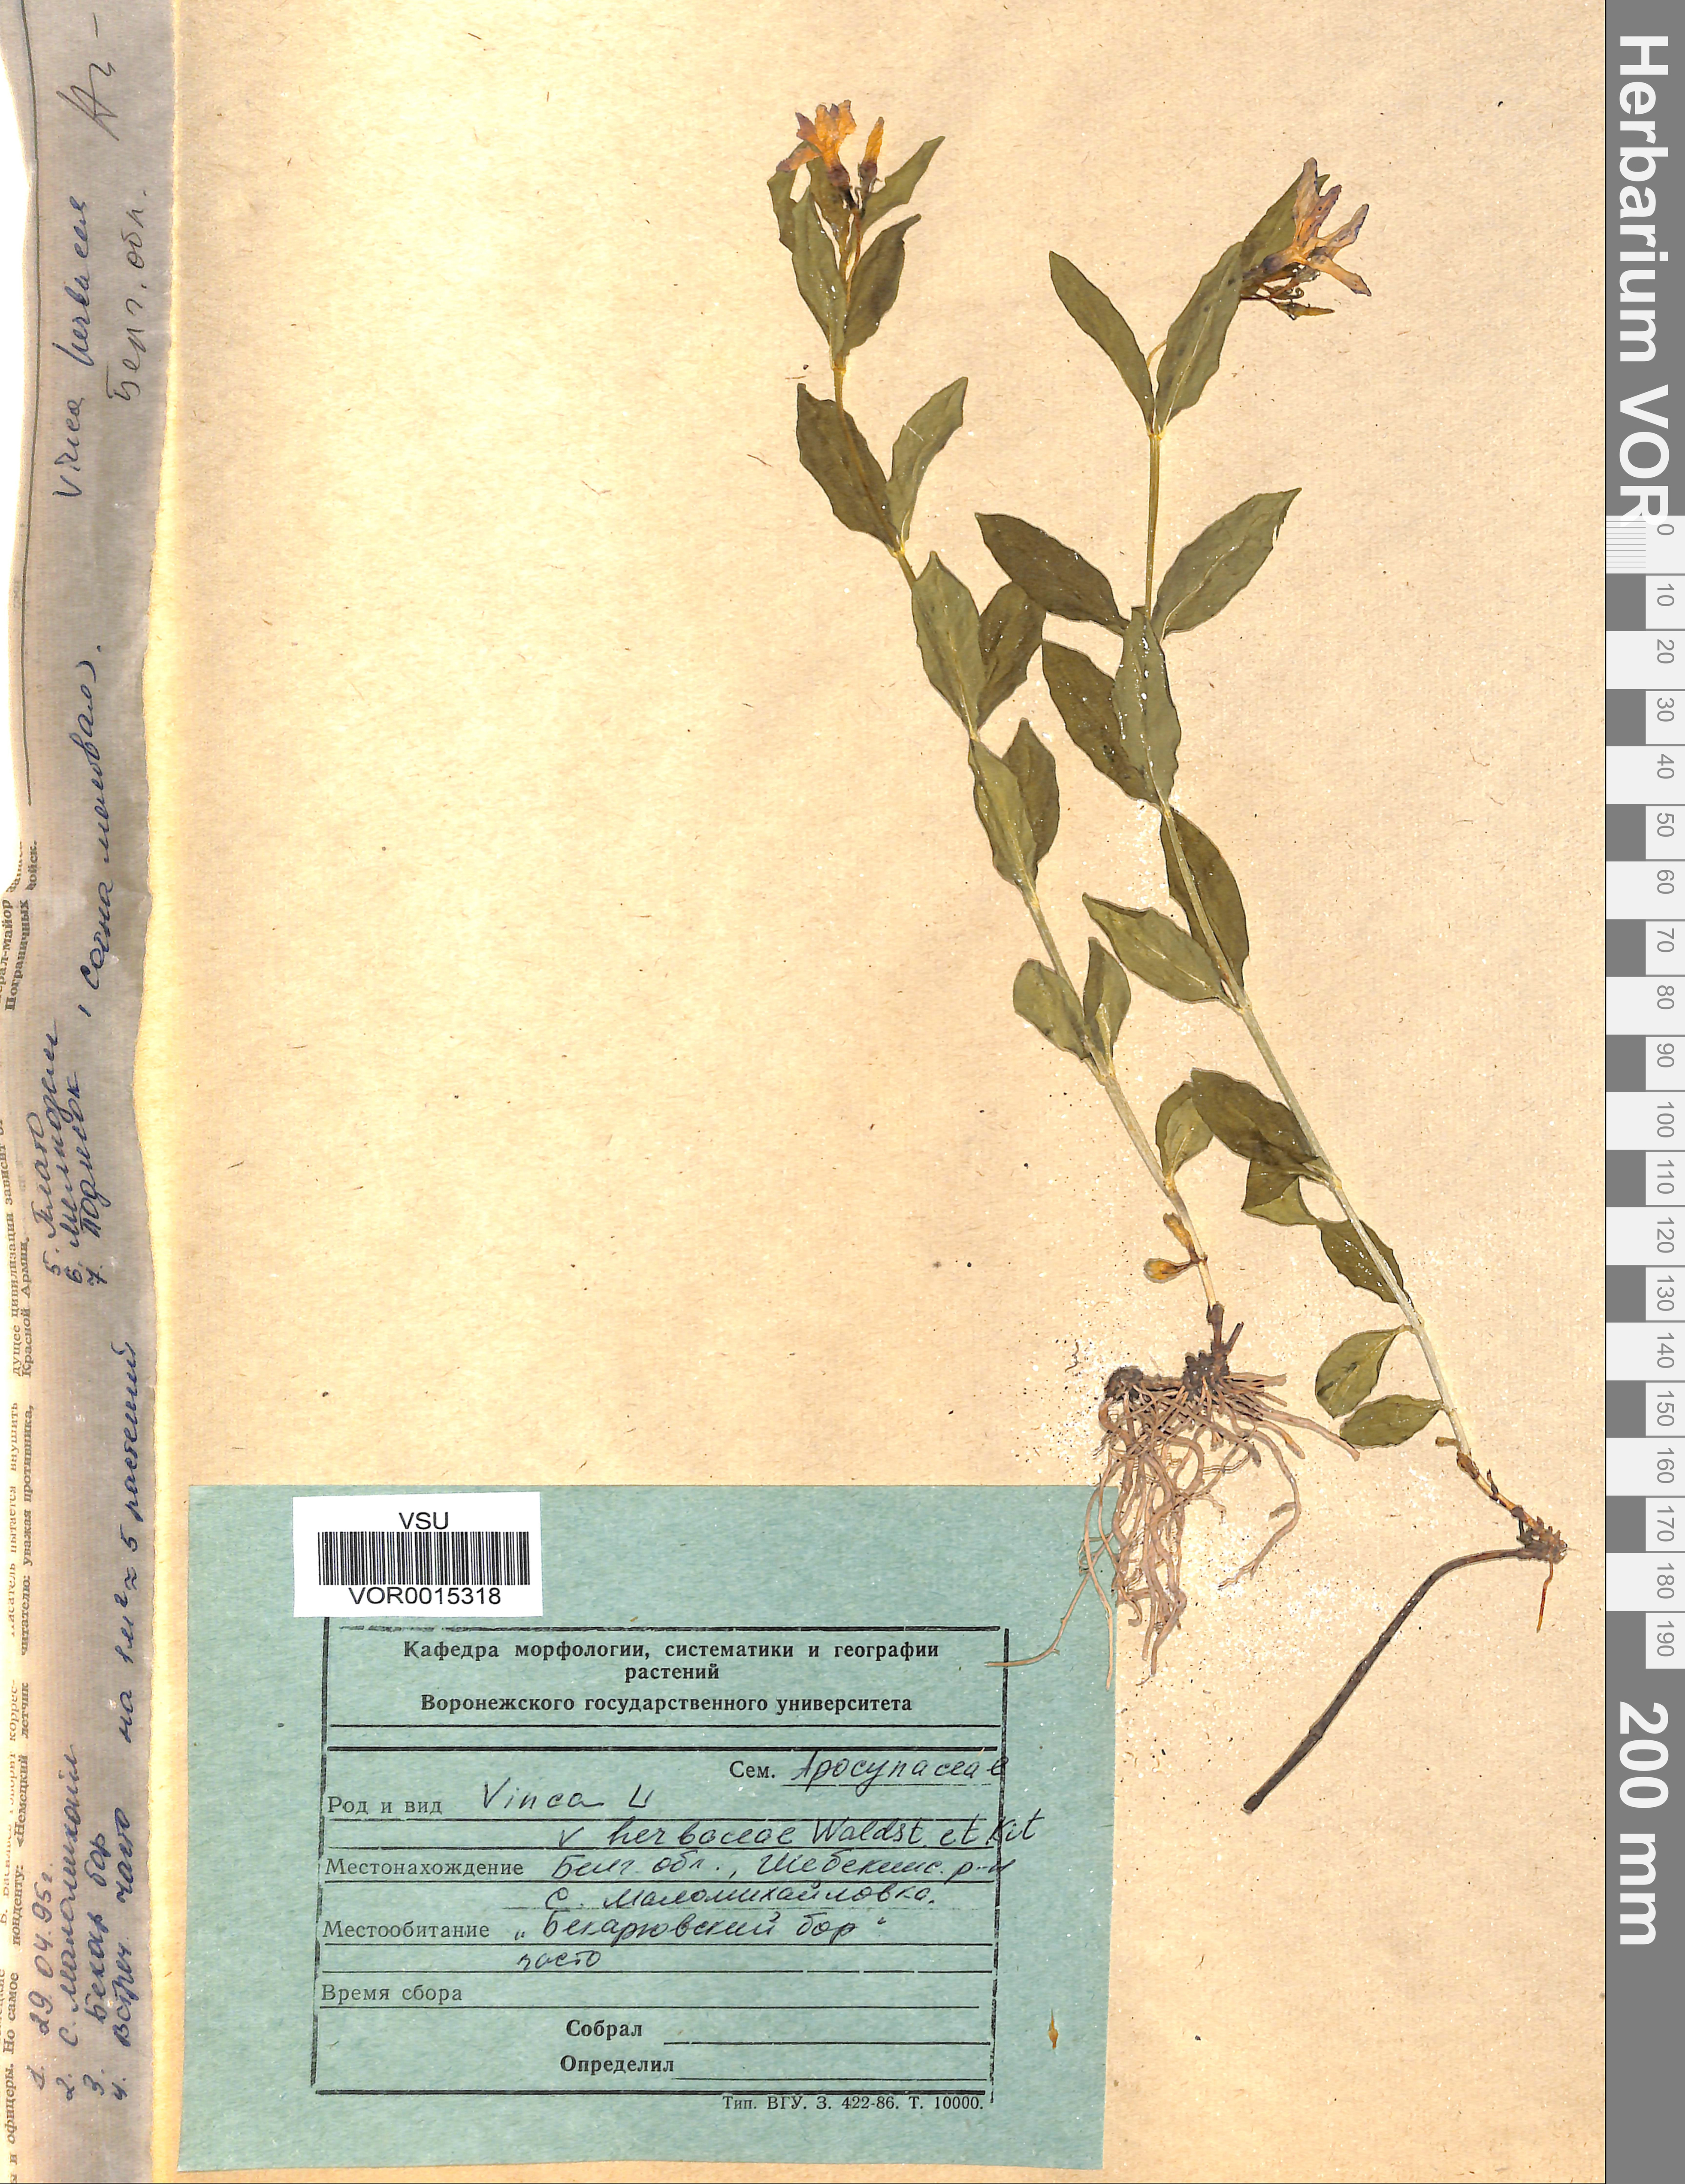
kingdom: Plantae
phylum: Tracheophyta
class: Magnoliopsida
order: Gentianales
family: Apocynaceae
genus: Vinca
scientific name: Vinca herbacea
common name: Herbaceous periwinkle
